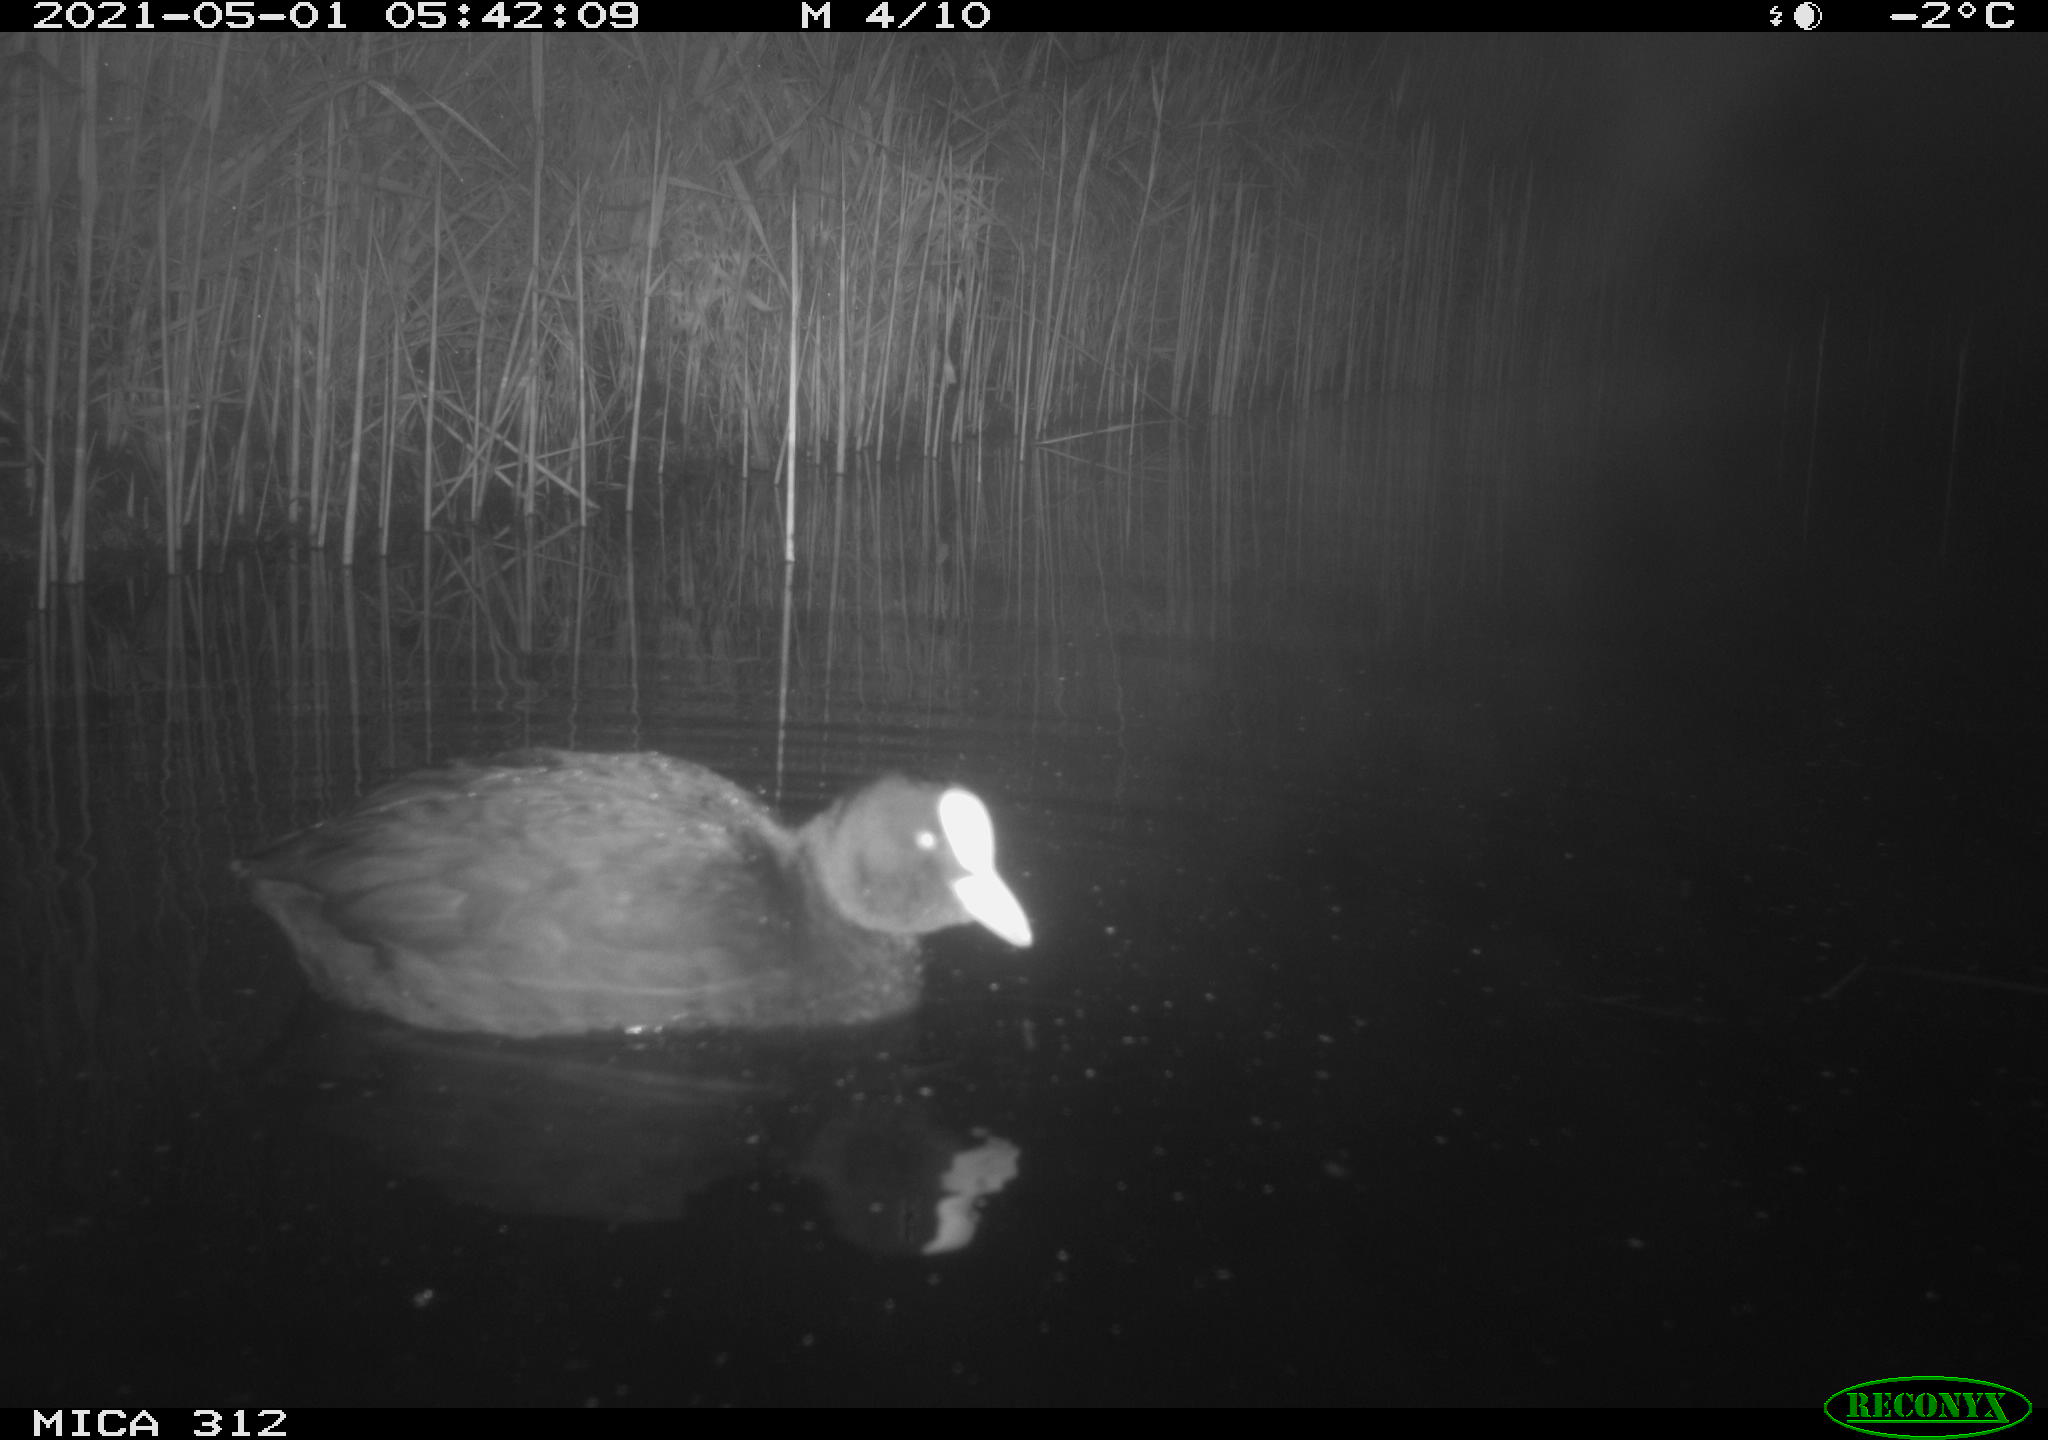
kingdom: Animalia
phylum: Chordata
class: Mammalia
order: Rodentia
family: Muridae
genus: Rattus
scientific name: Rattus norvegicus
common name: Brown rat
